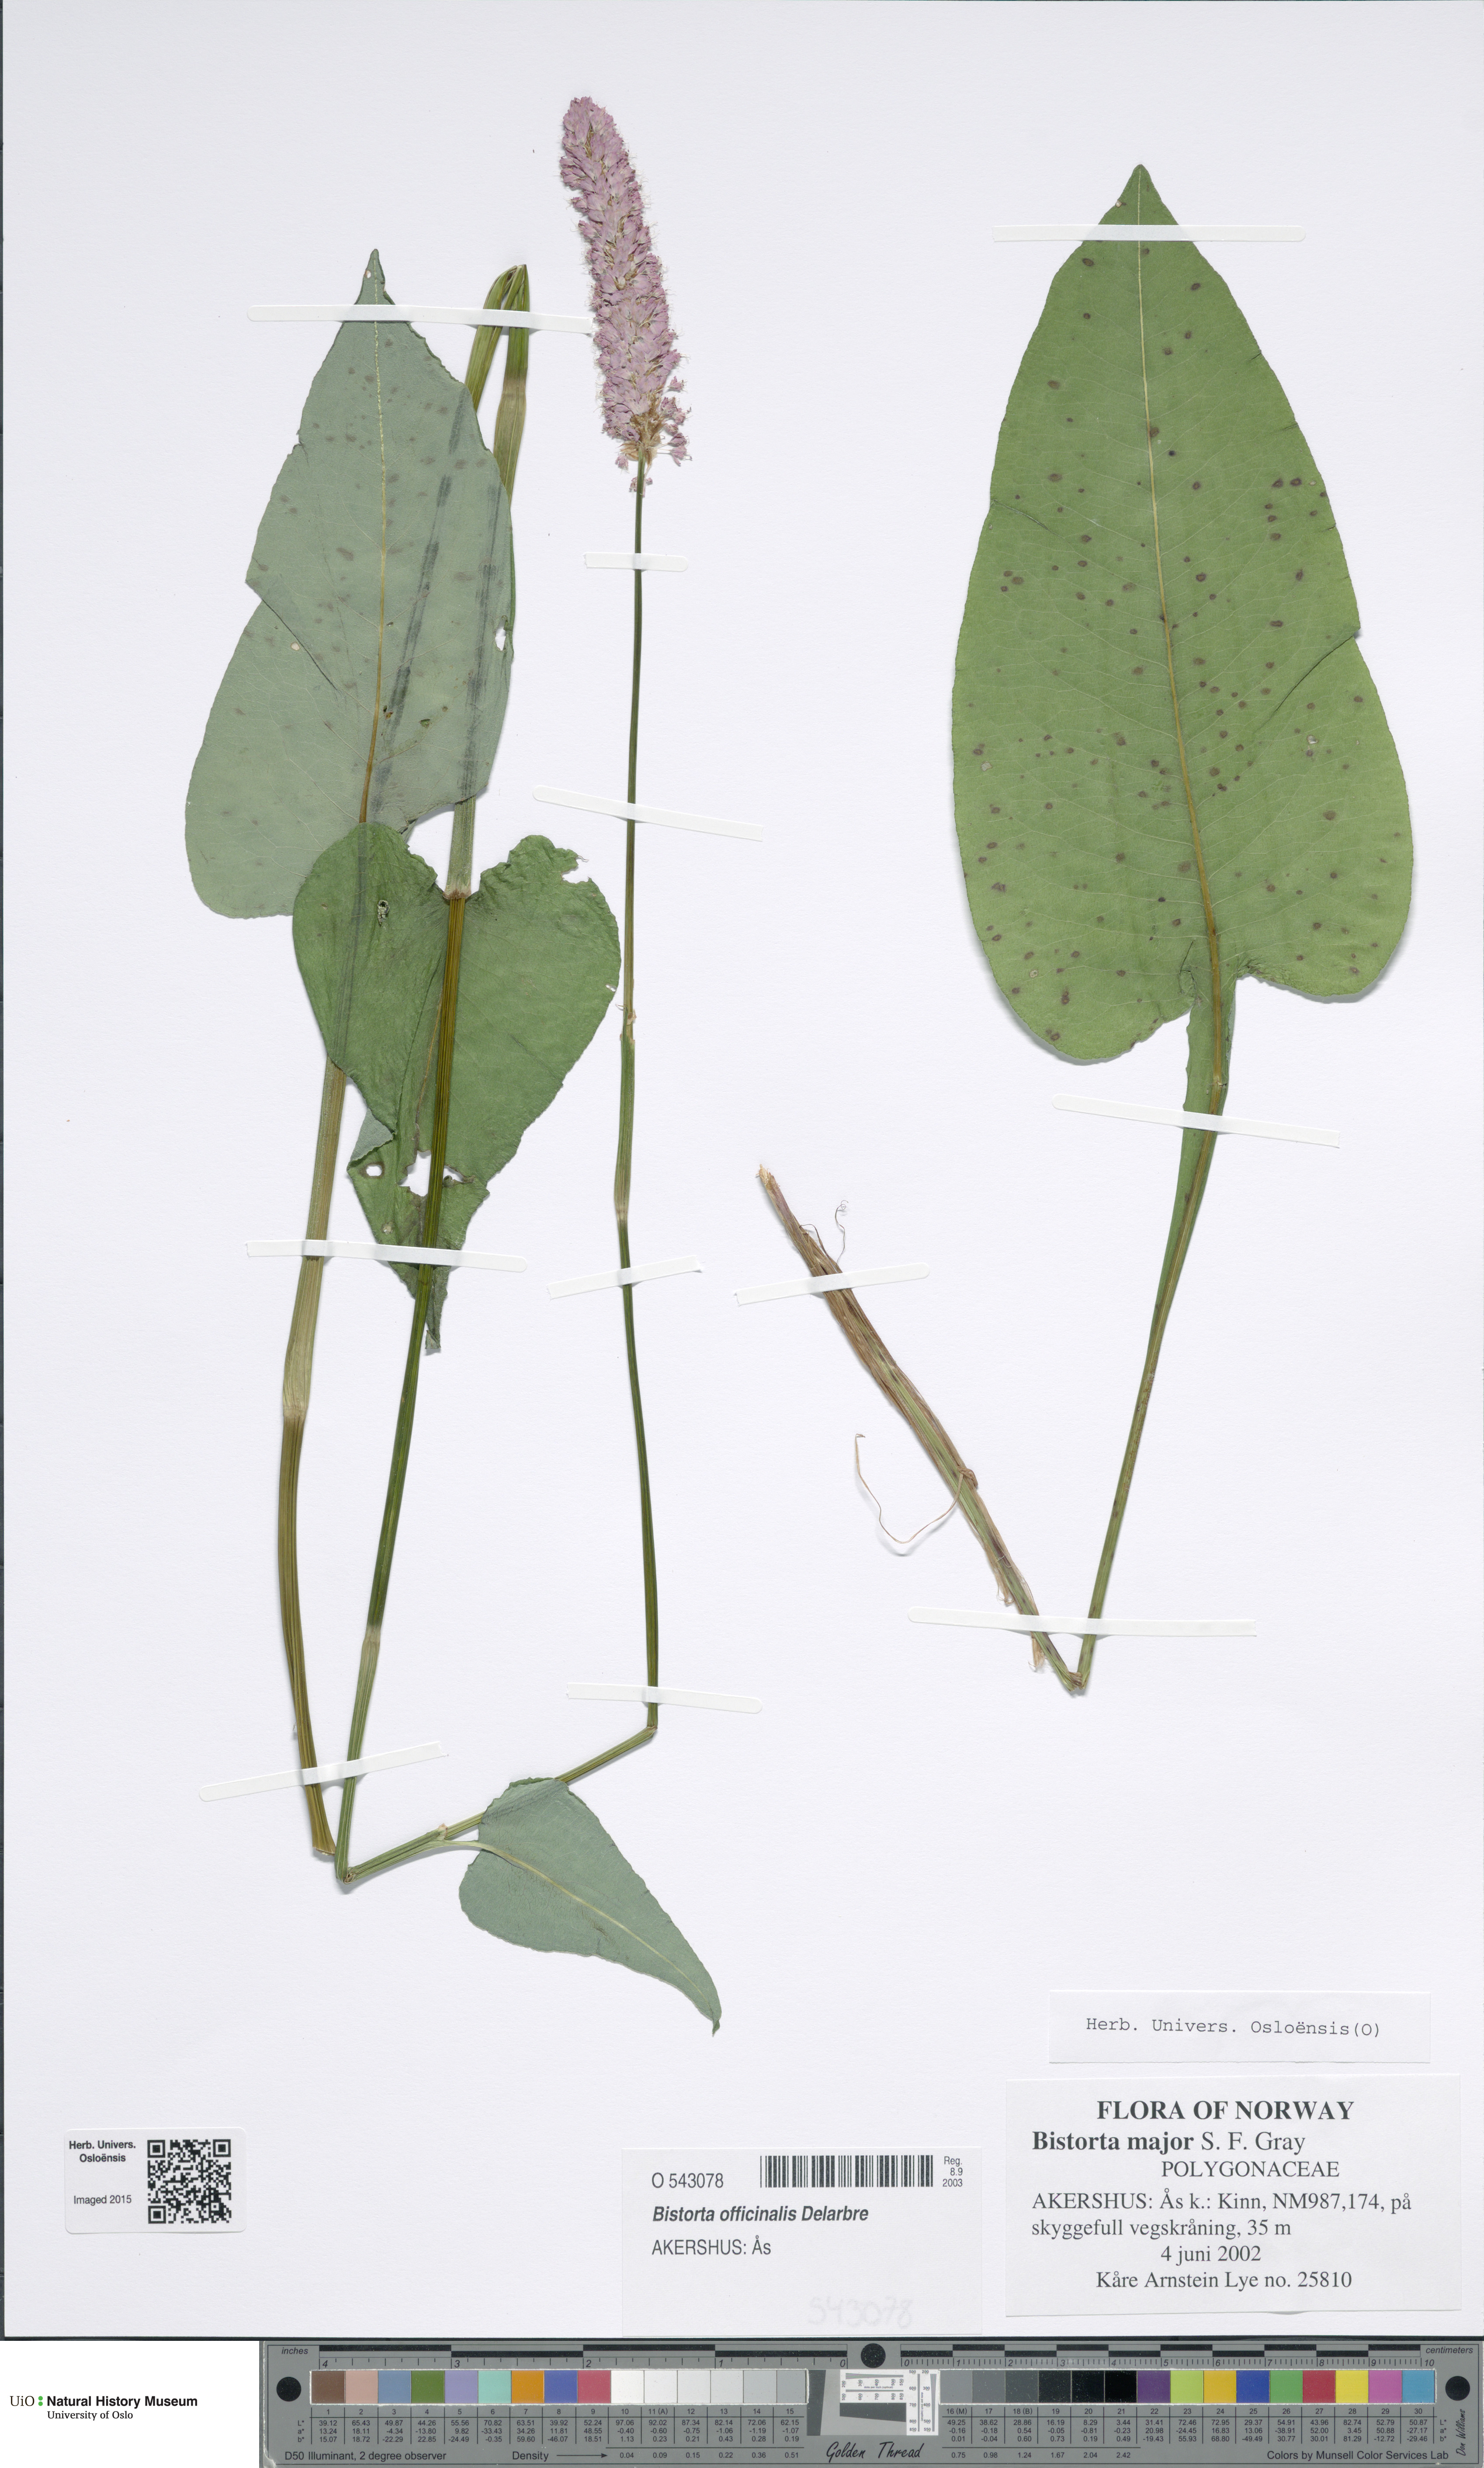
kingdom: Plantae
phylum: Tracheophyta
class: Magnoliopsida
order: Caryophyllales
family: Polygonaceae
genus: Bistorta
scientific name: Bistorta officinalis
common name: Common bistort
